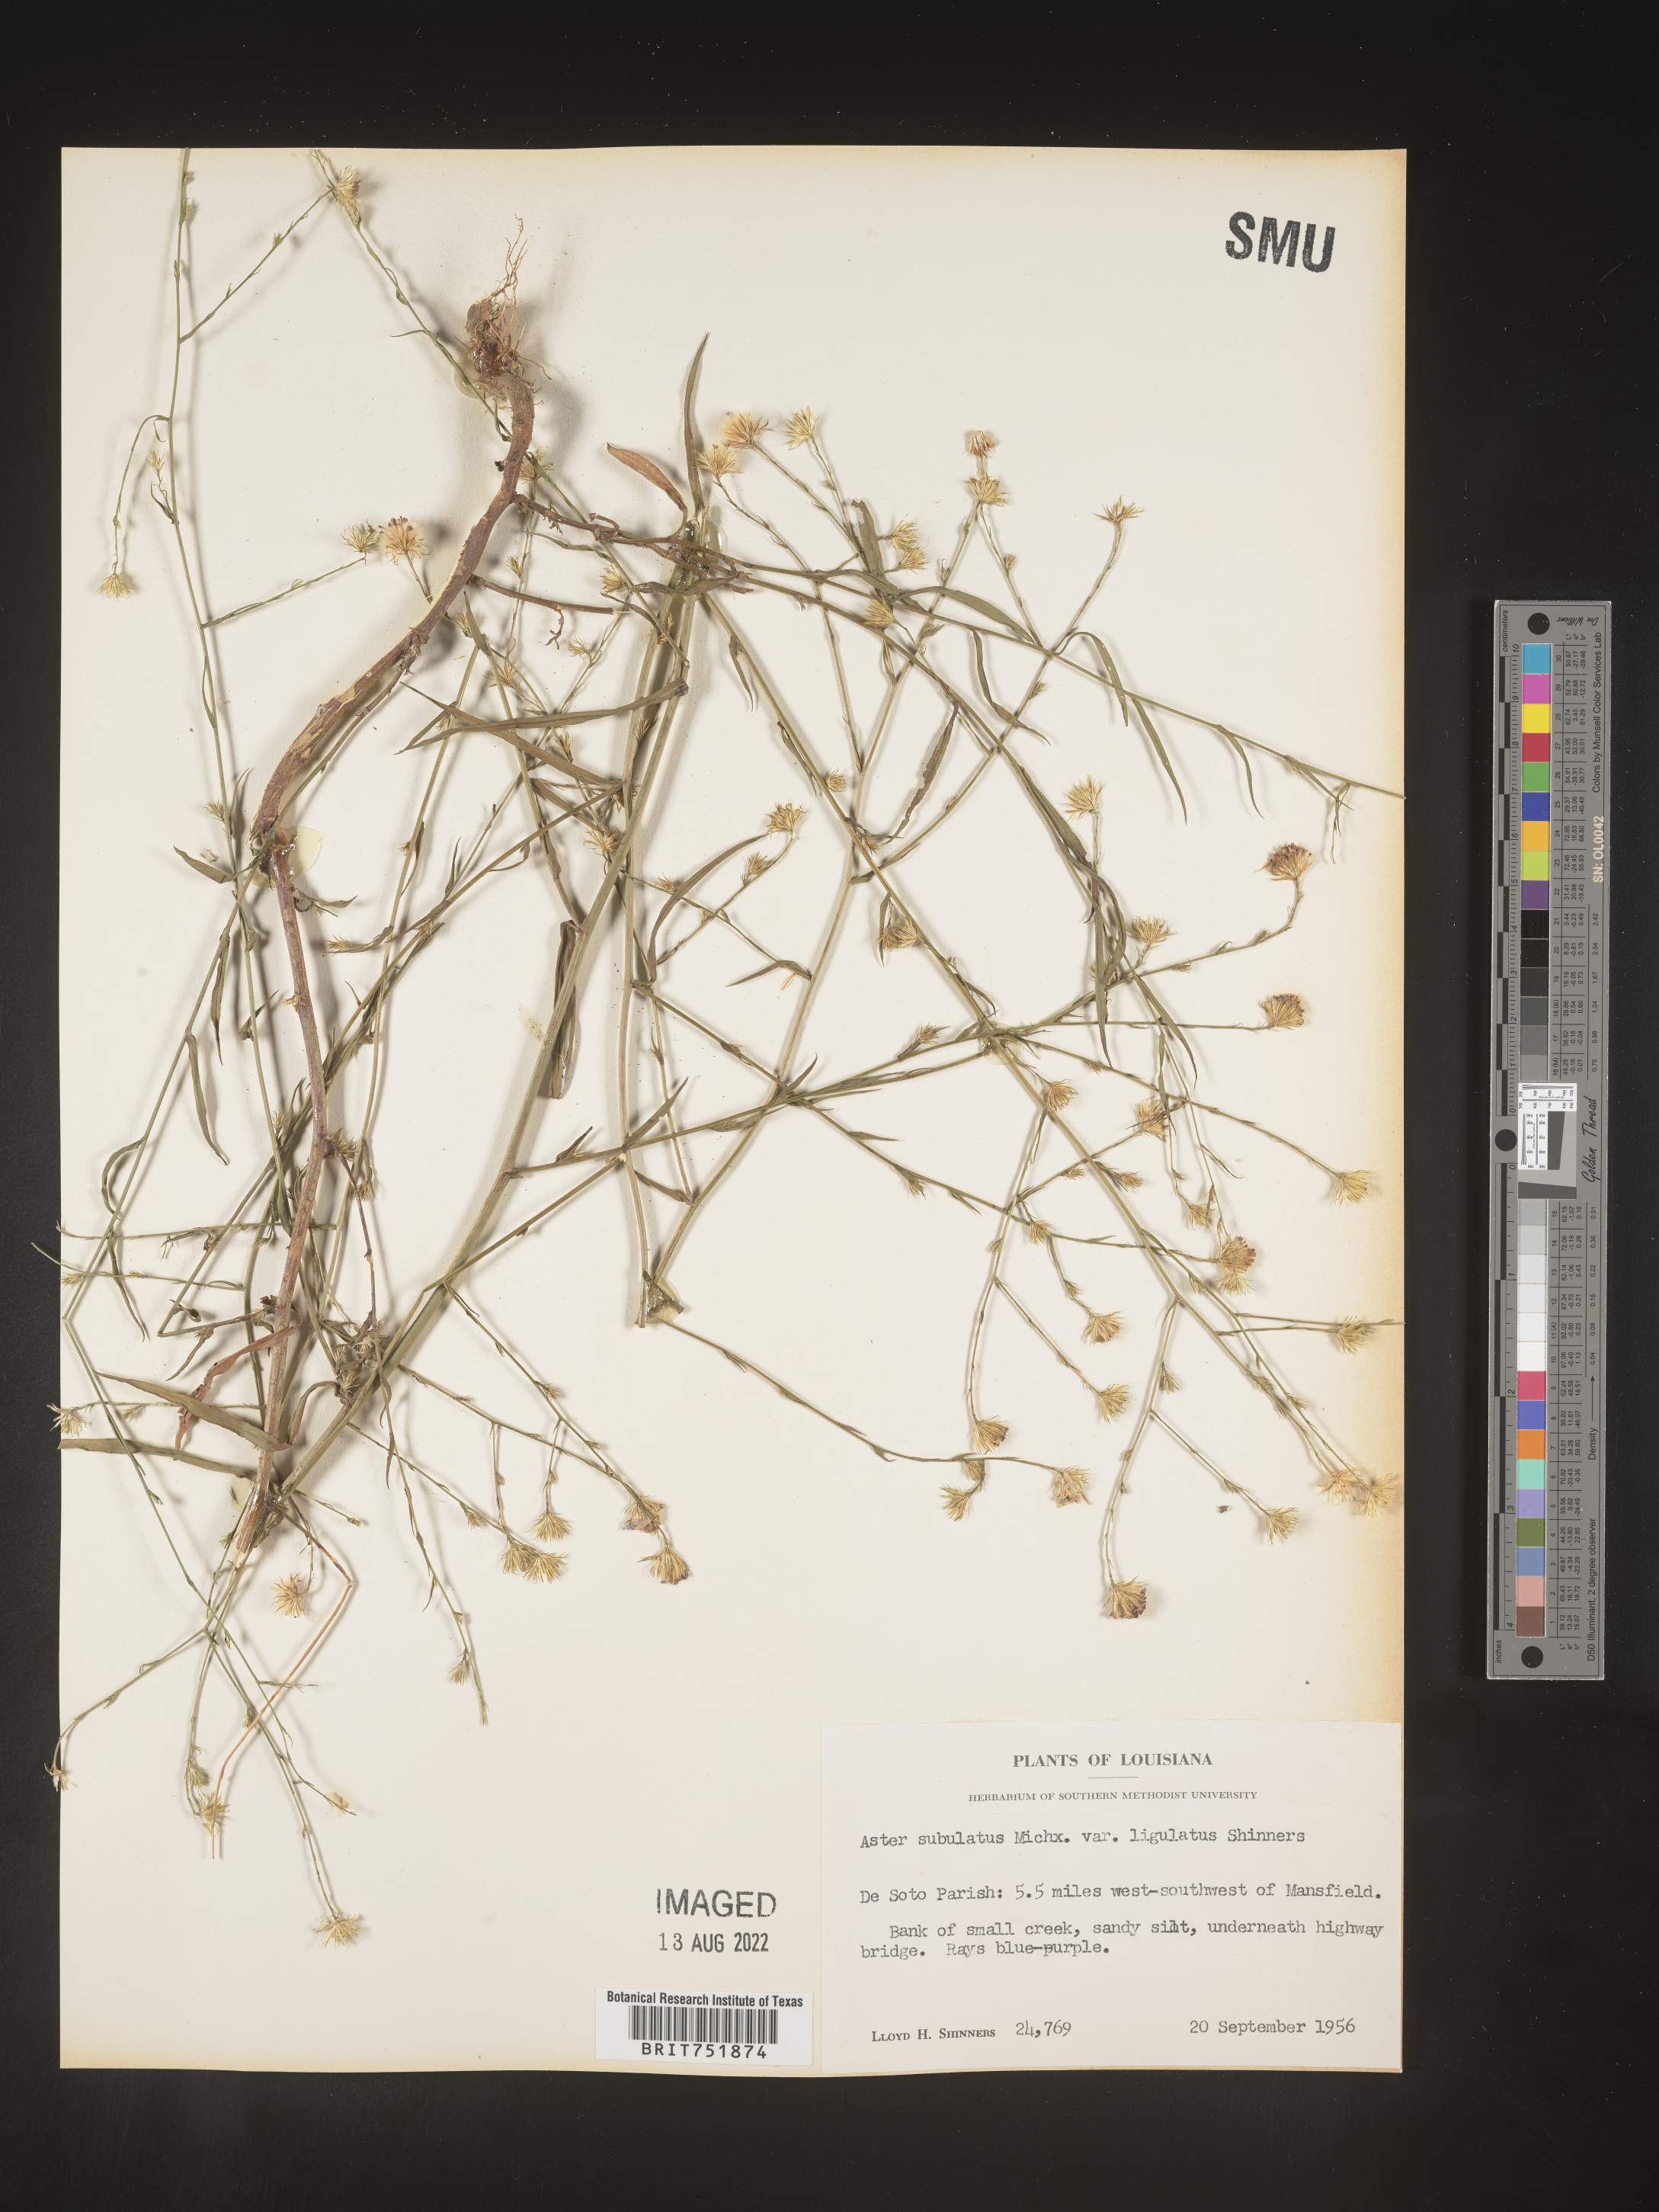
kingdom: Plantae
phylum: Tracheophyta
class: Magnoliopsida
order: Asterales
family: Asteraceae
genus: Symphyotrichum
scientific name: Symphyotrichum divaricatum
